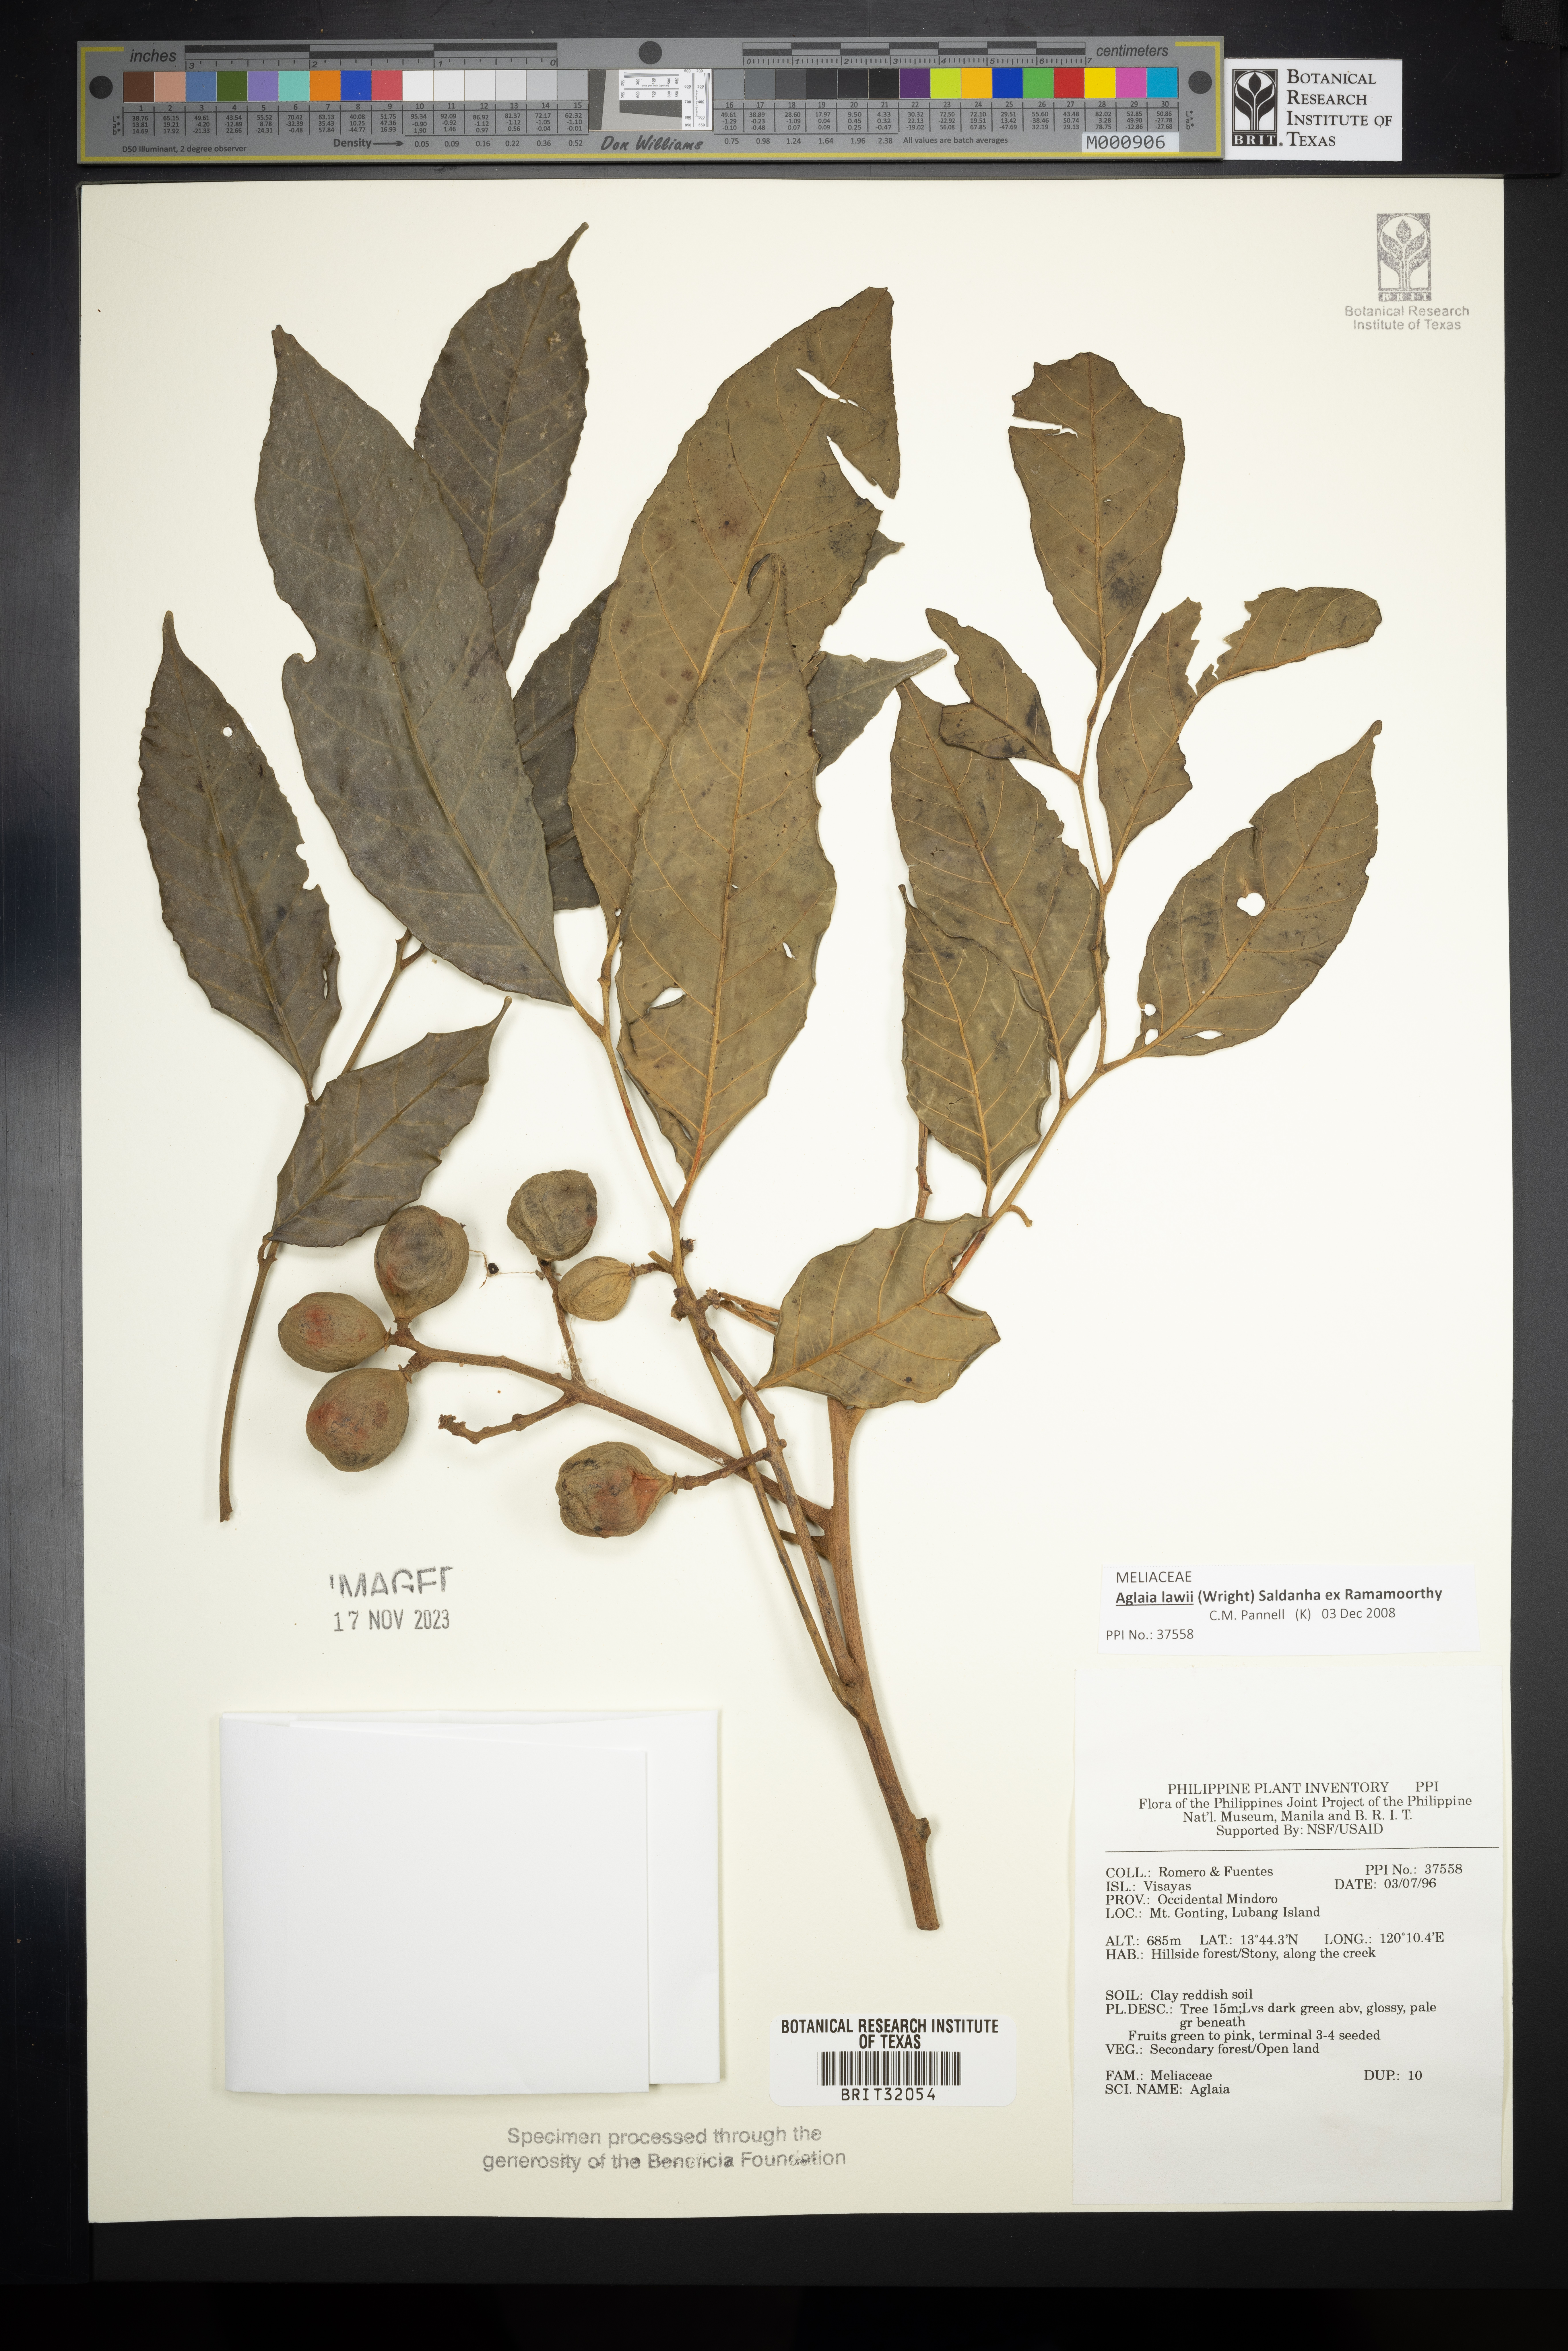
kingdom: Plantae
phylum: Tracheophyta
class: Magnoliopsida
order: Sapindales
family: Meliaceae
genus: Aglaia
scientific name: Aglaia
